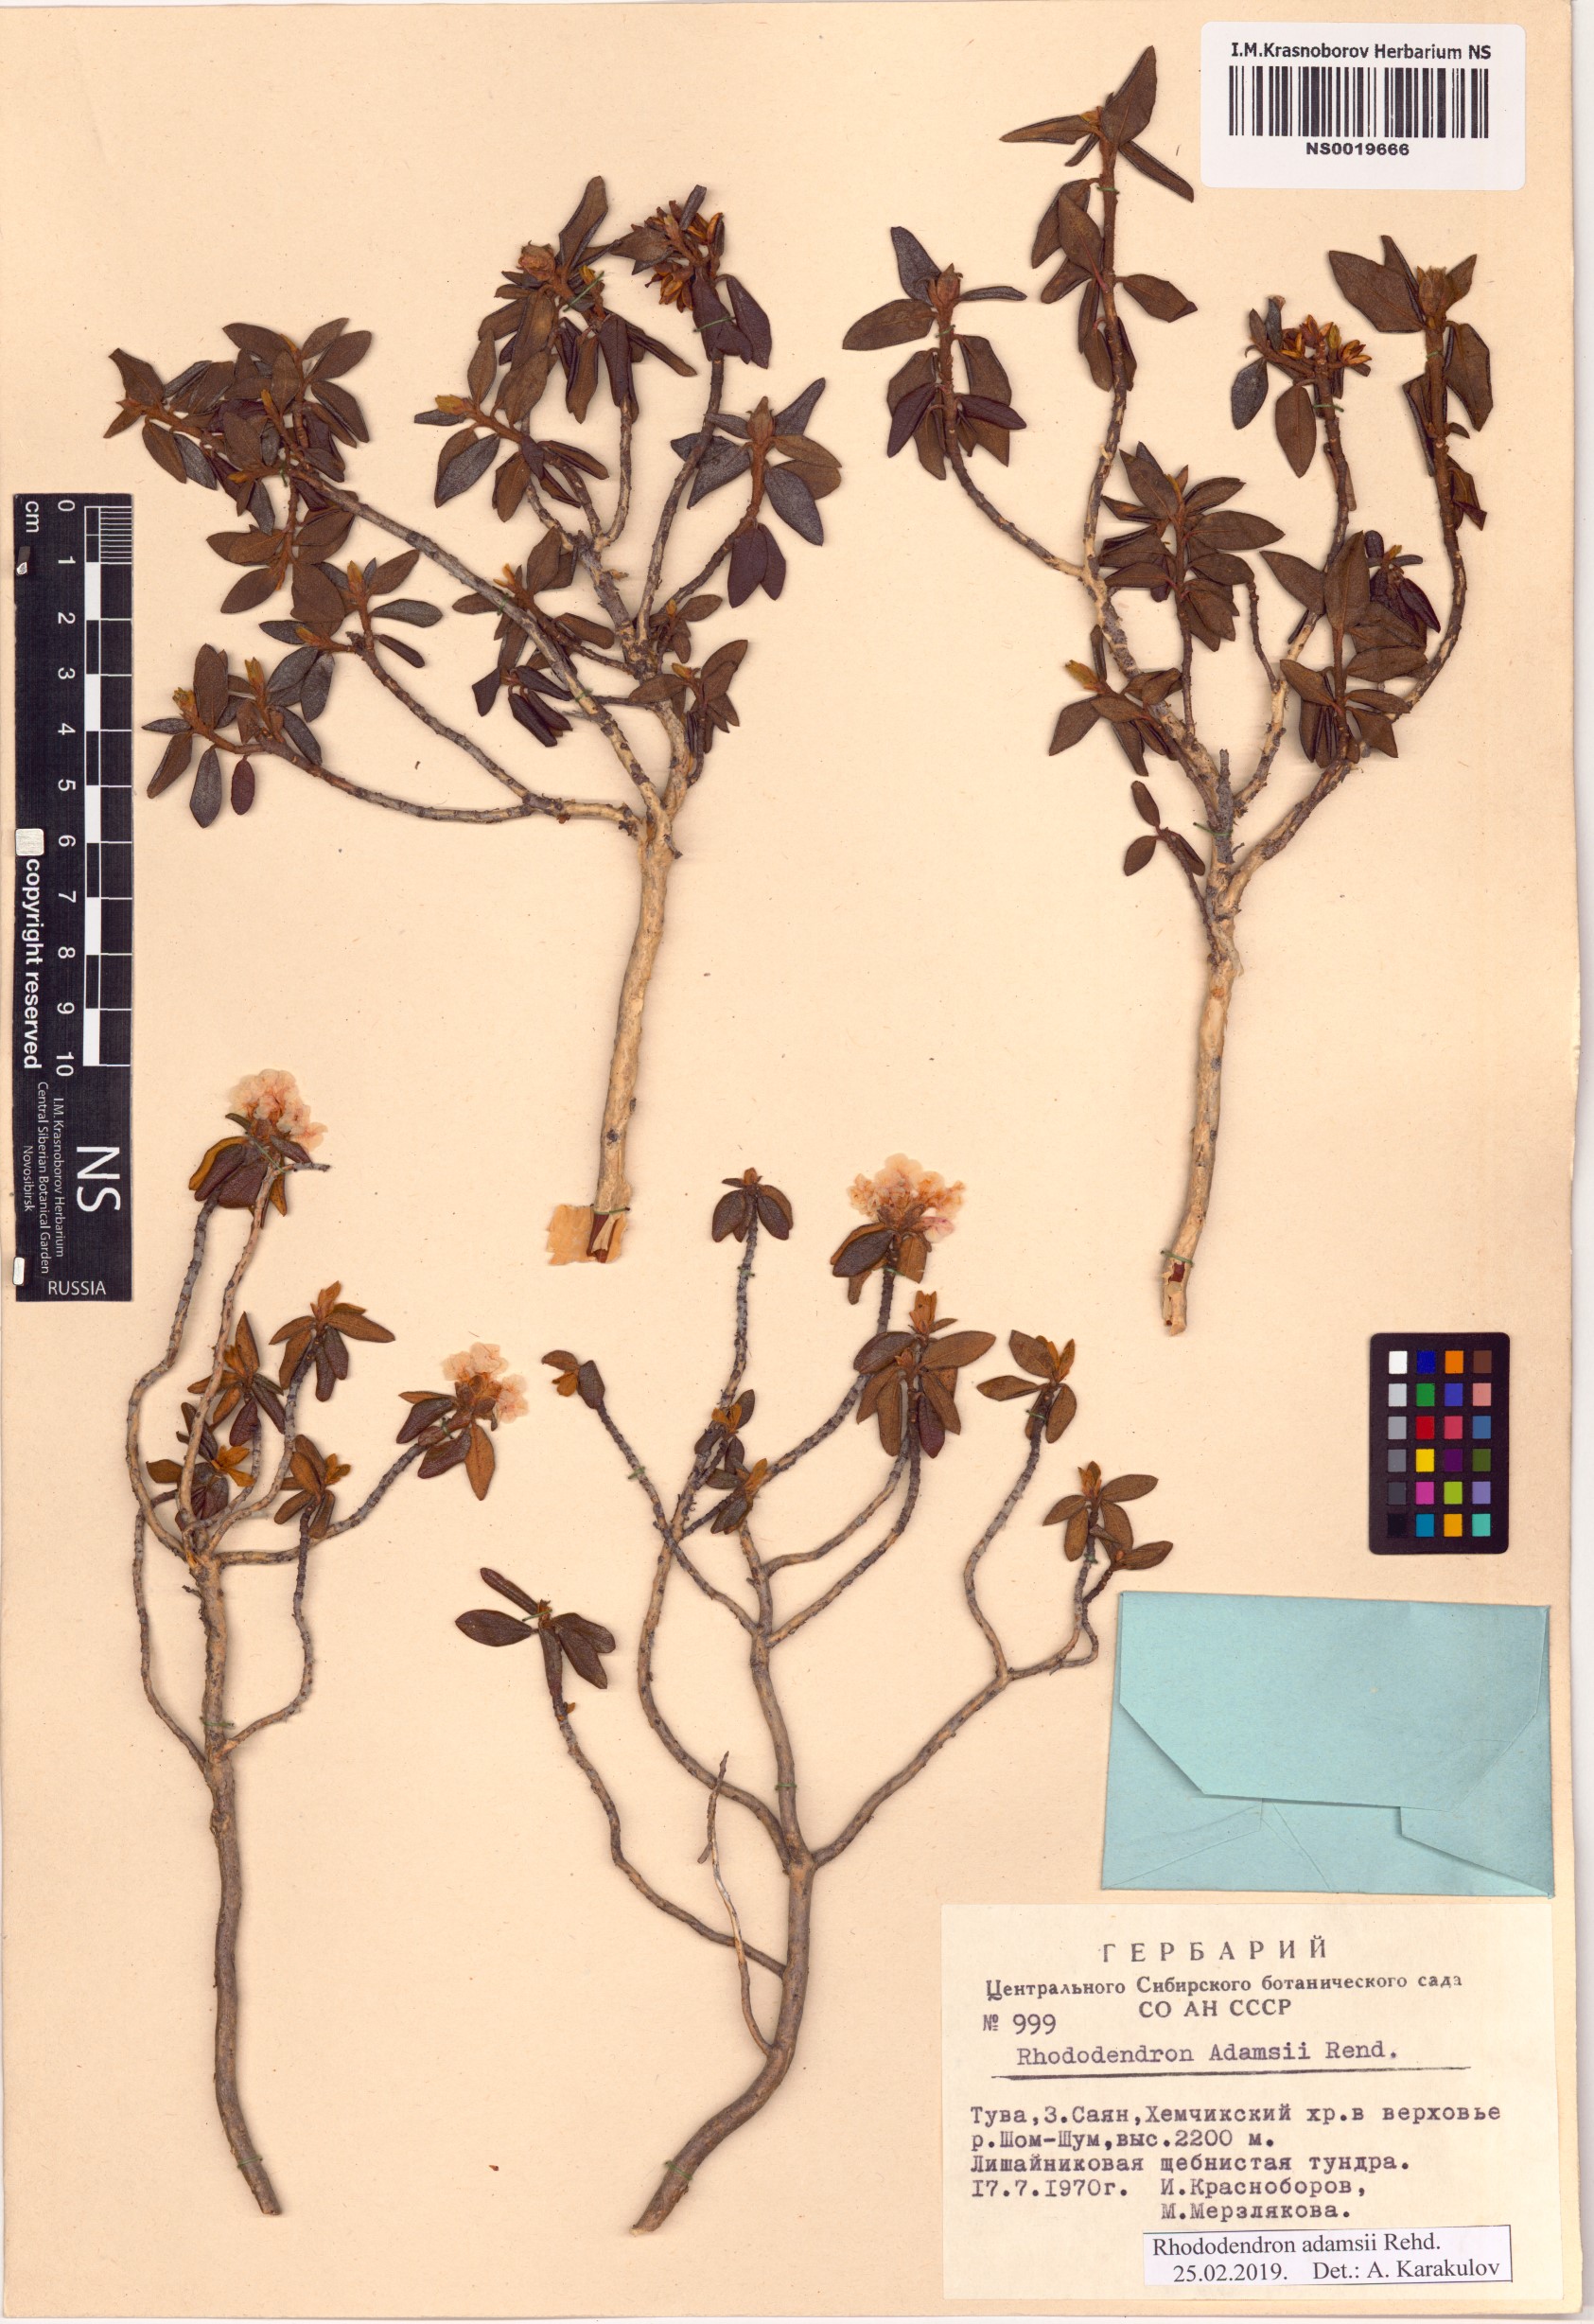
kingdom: Plantae
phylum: Tracheophyta
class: Magnoliopsida
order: Ericales
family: Ericaceae
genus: Rhododendron
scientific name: Rhododendron adamsii
